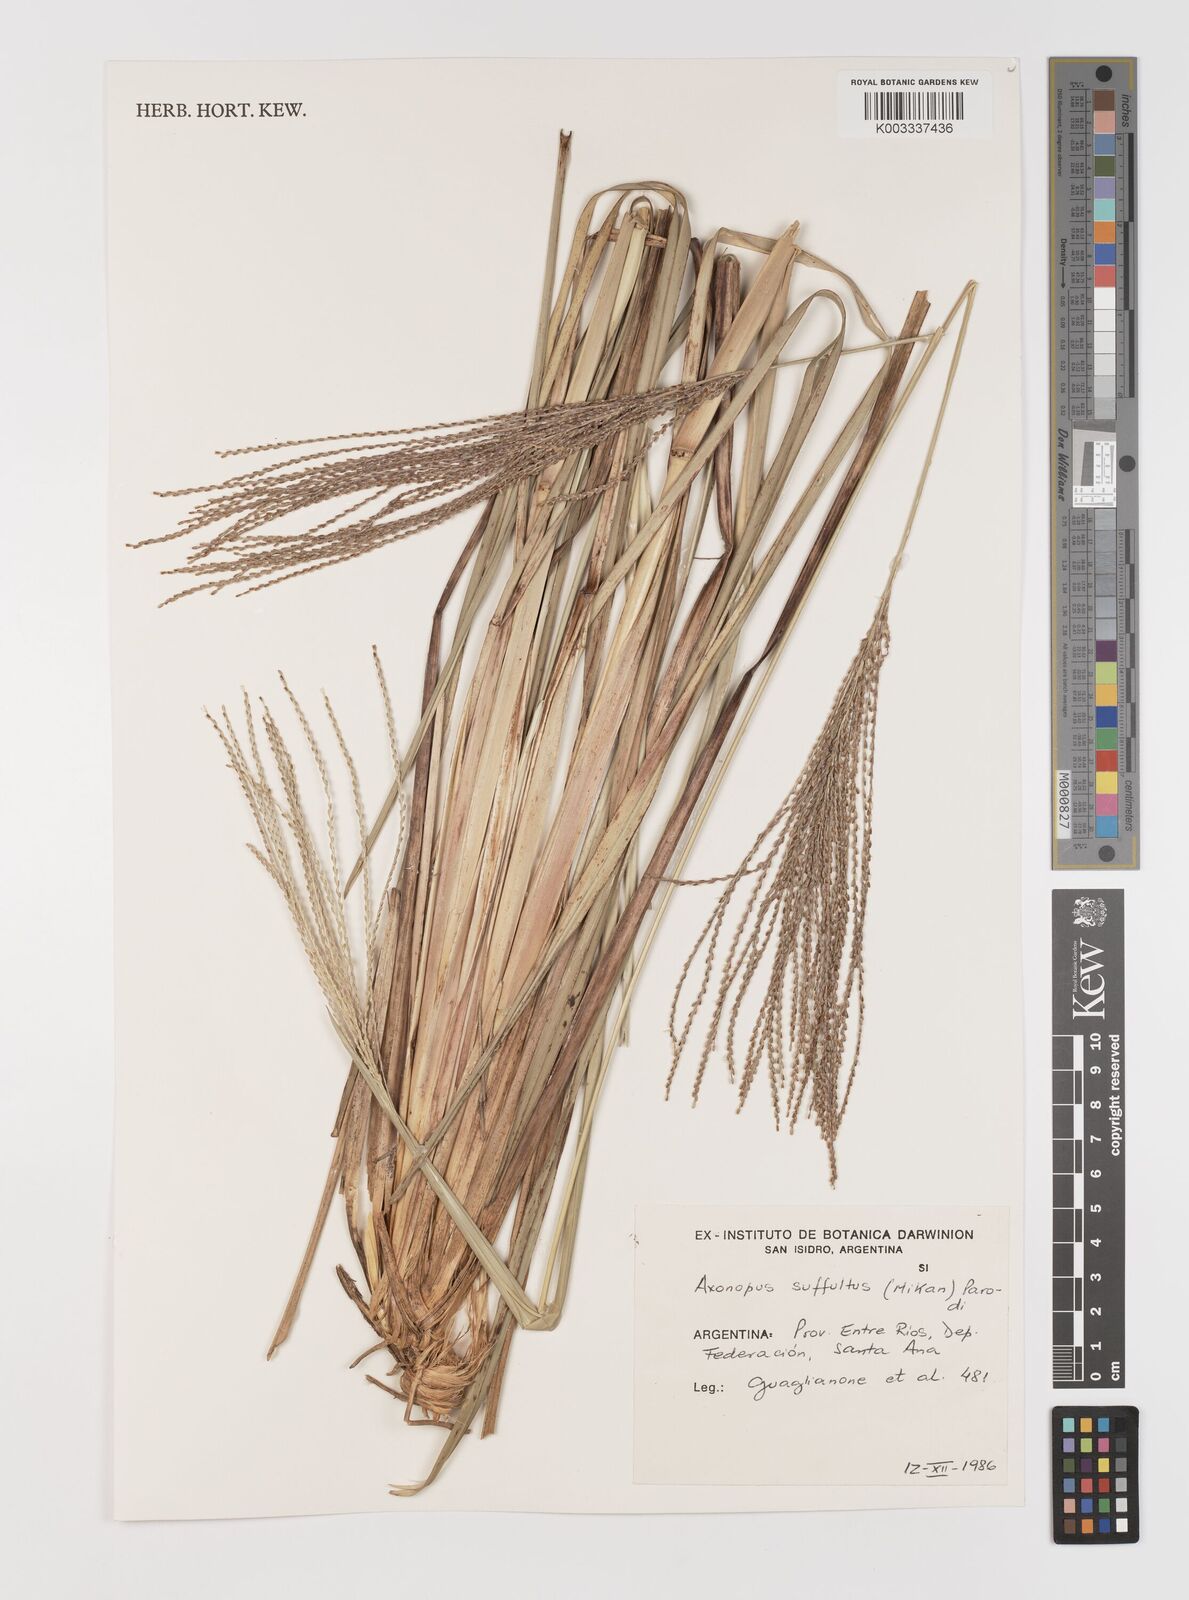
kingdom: Plantae
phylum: Tracheophyta
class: Liliopsida
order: Poales
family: Poaceae
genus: Axonopus
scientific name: Axonopus suffultus
